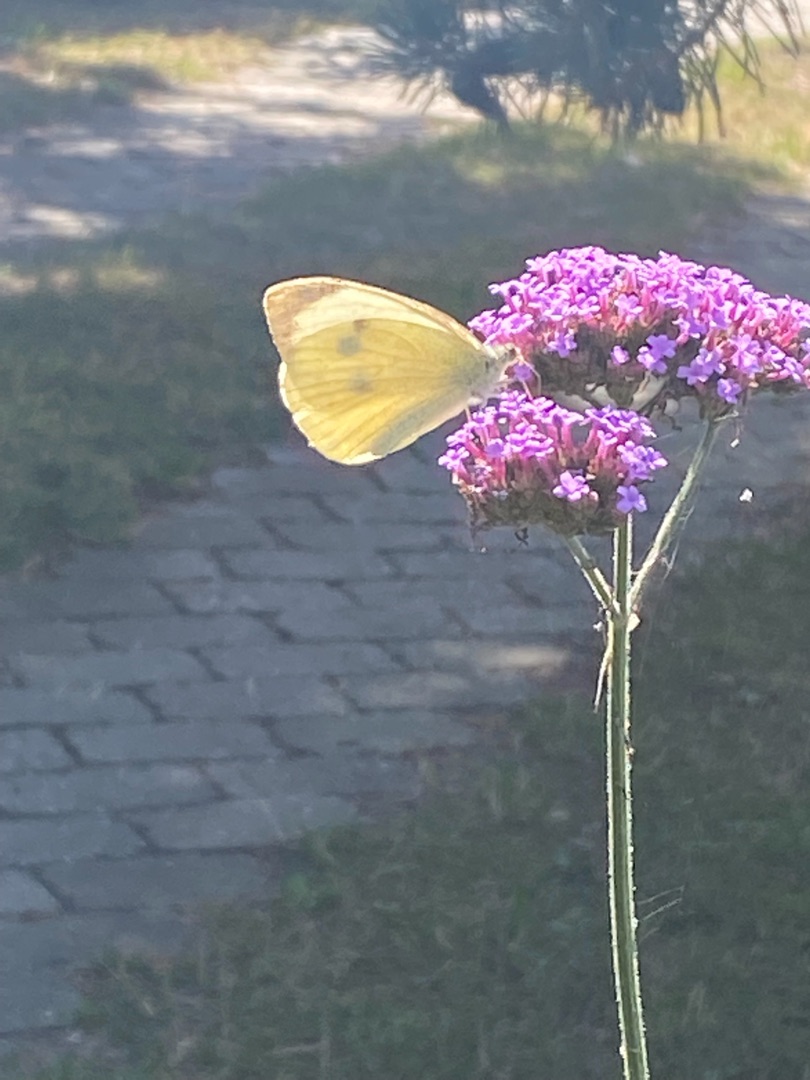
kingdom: Animalia
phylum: Arthropoda
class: Insecta
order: Lepidoptera
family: Pieridae
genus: Pieris
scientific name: Pieris brassicae
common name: Stor kålsommerfugl
